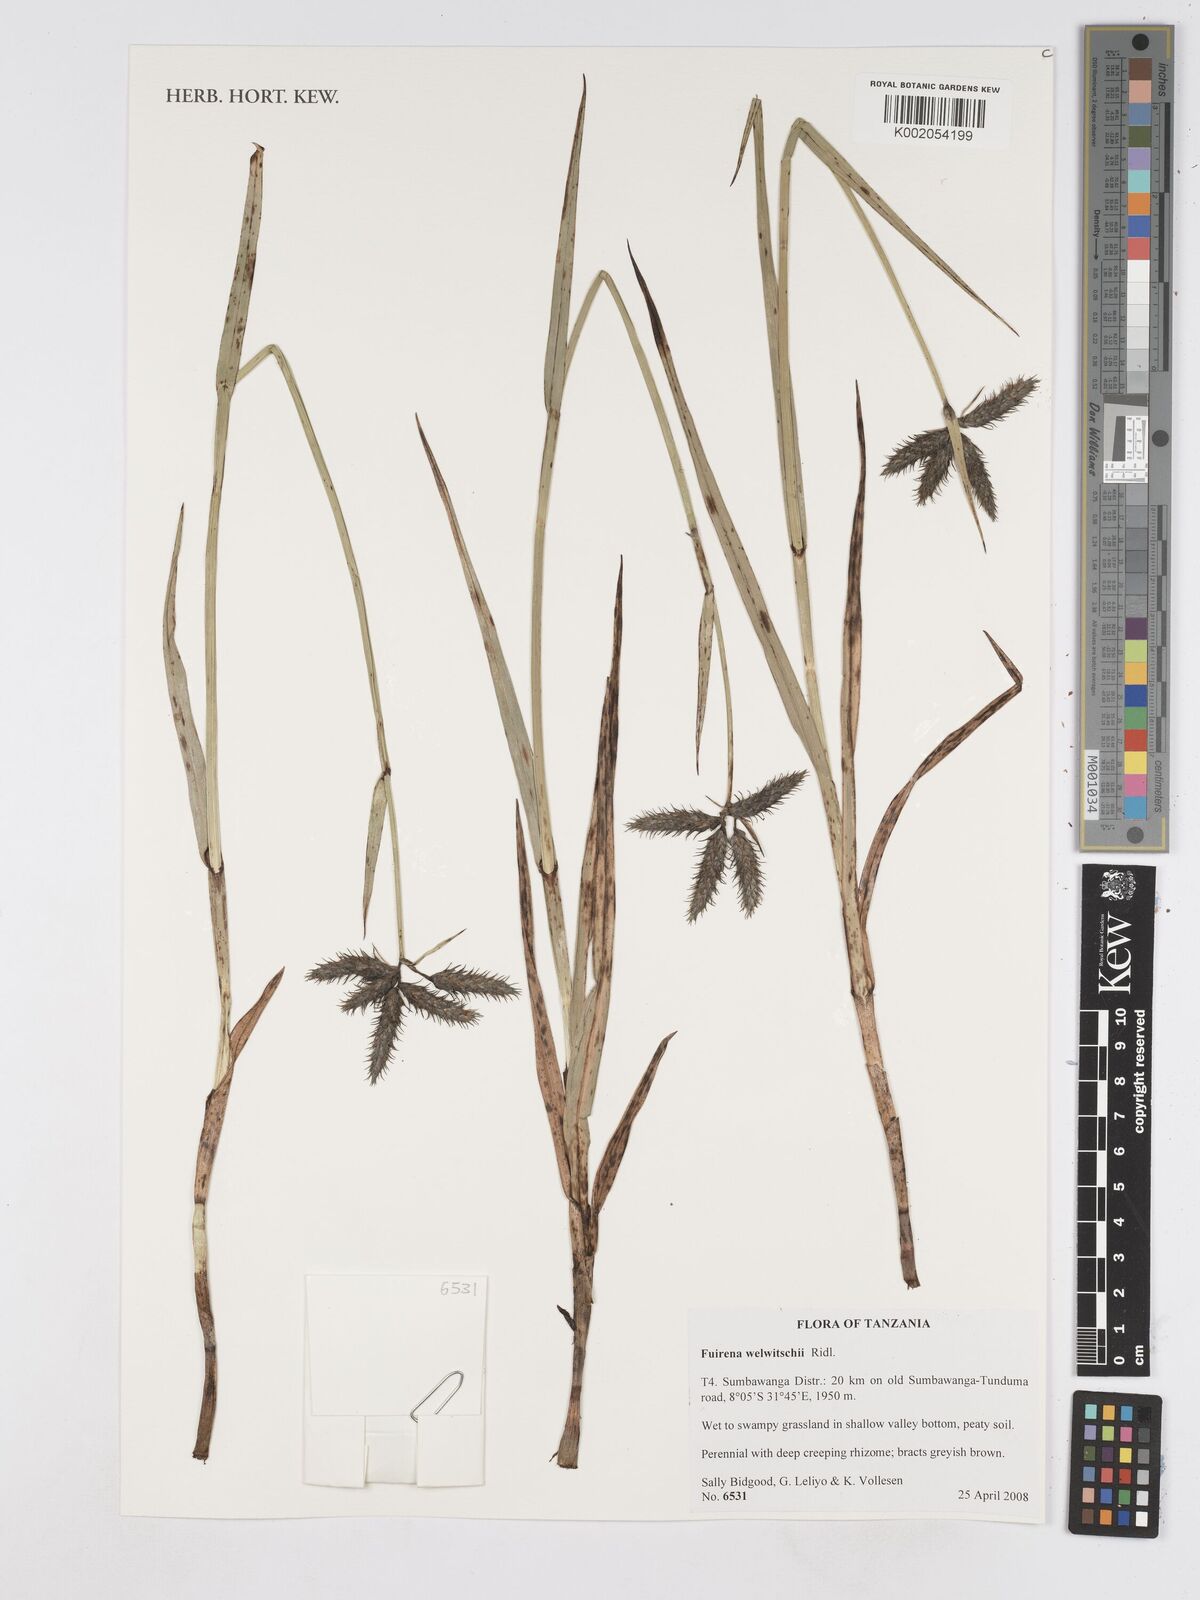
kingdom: Plantae
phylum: Tracheophyta
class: Liliopsida
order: Poales
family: Cyperaceae
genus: Fuirena
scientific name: Fuirena welwitschii
